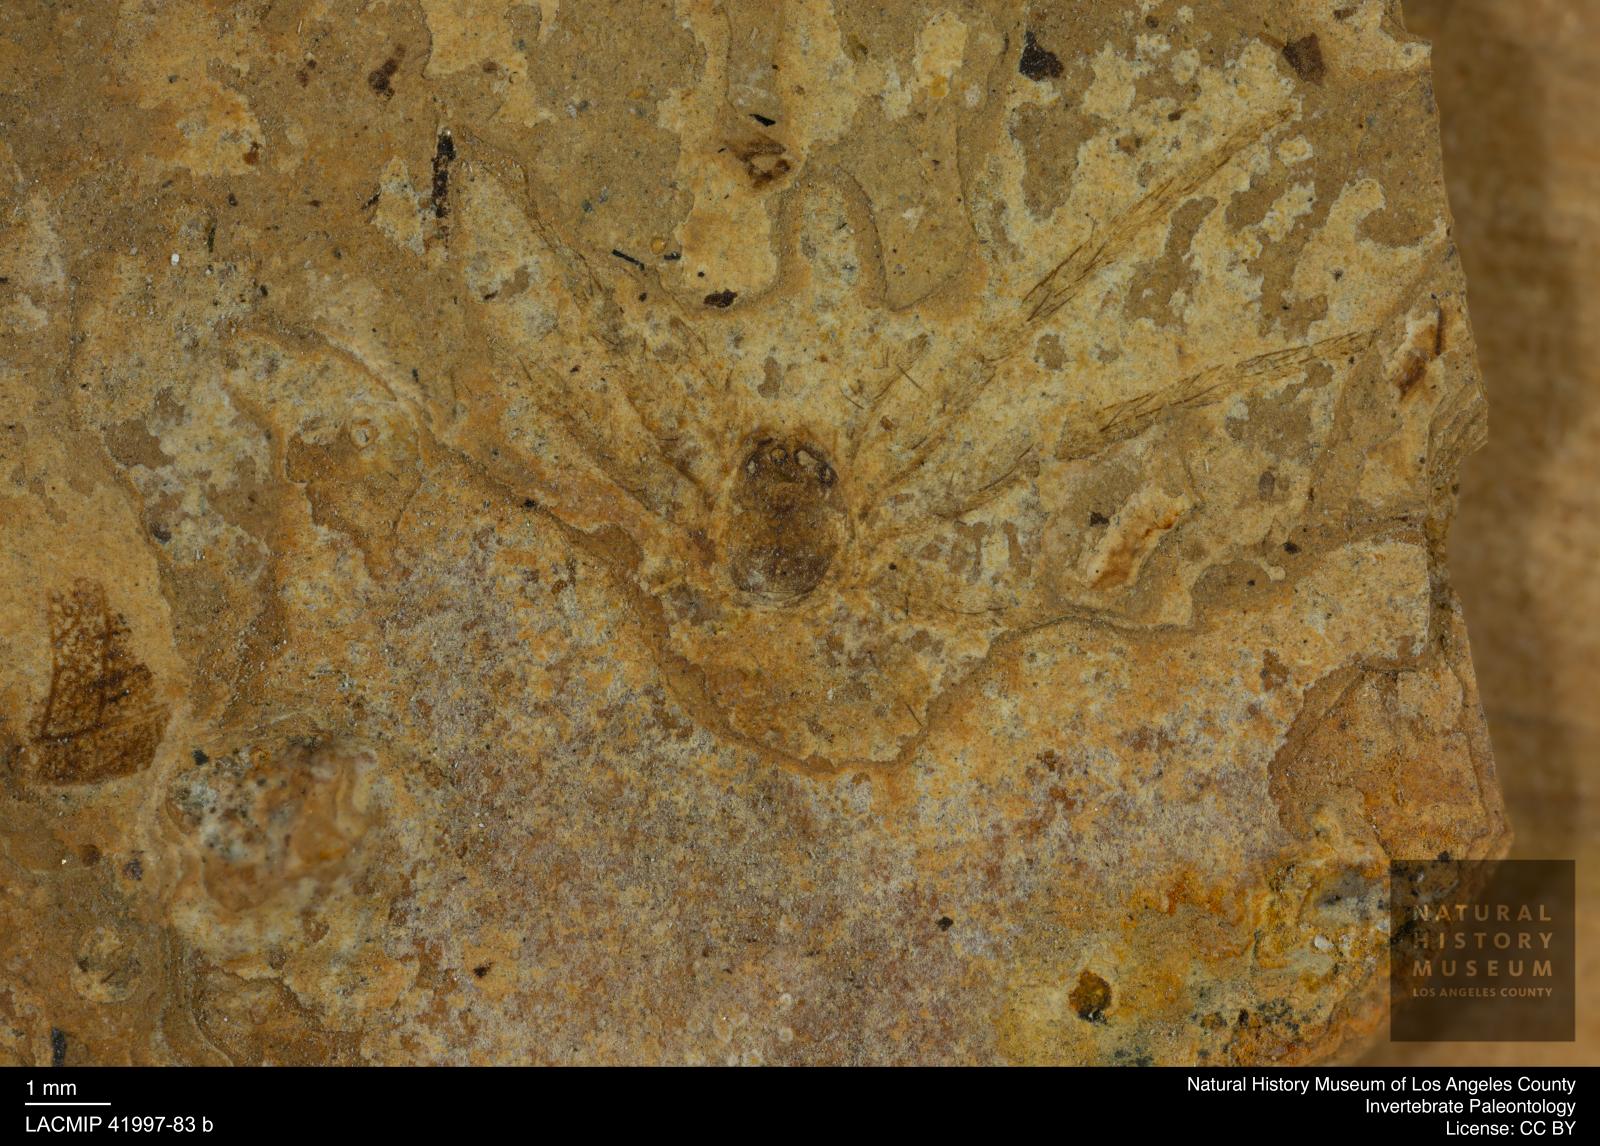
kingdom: Animalia
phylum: Arthropoda
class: Arachnida
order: Araneae
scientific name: Araneae
